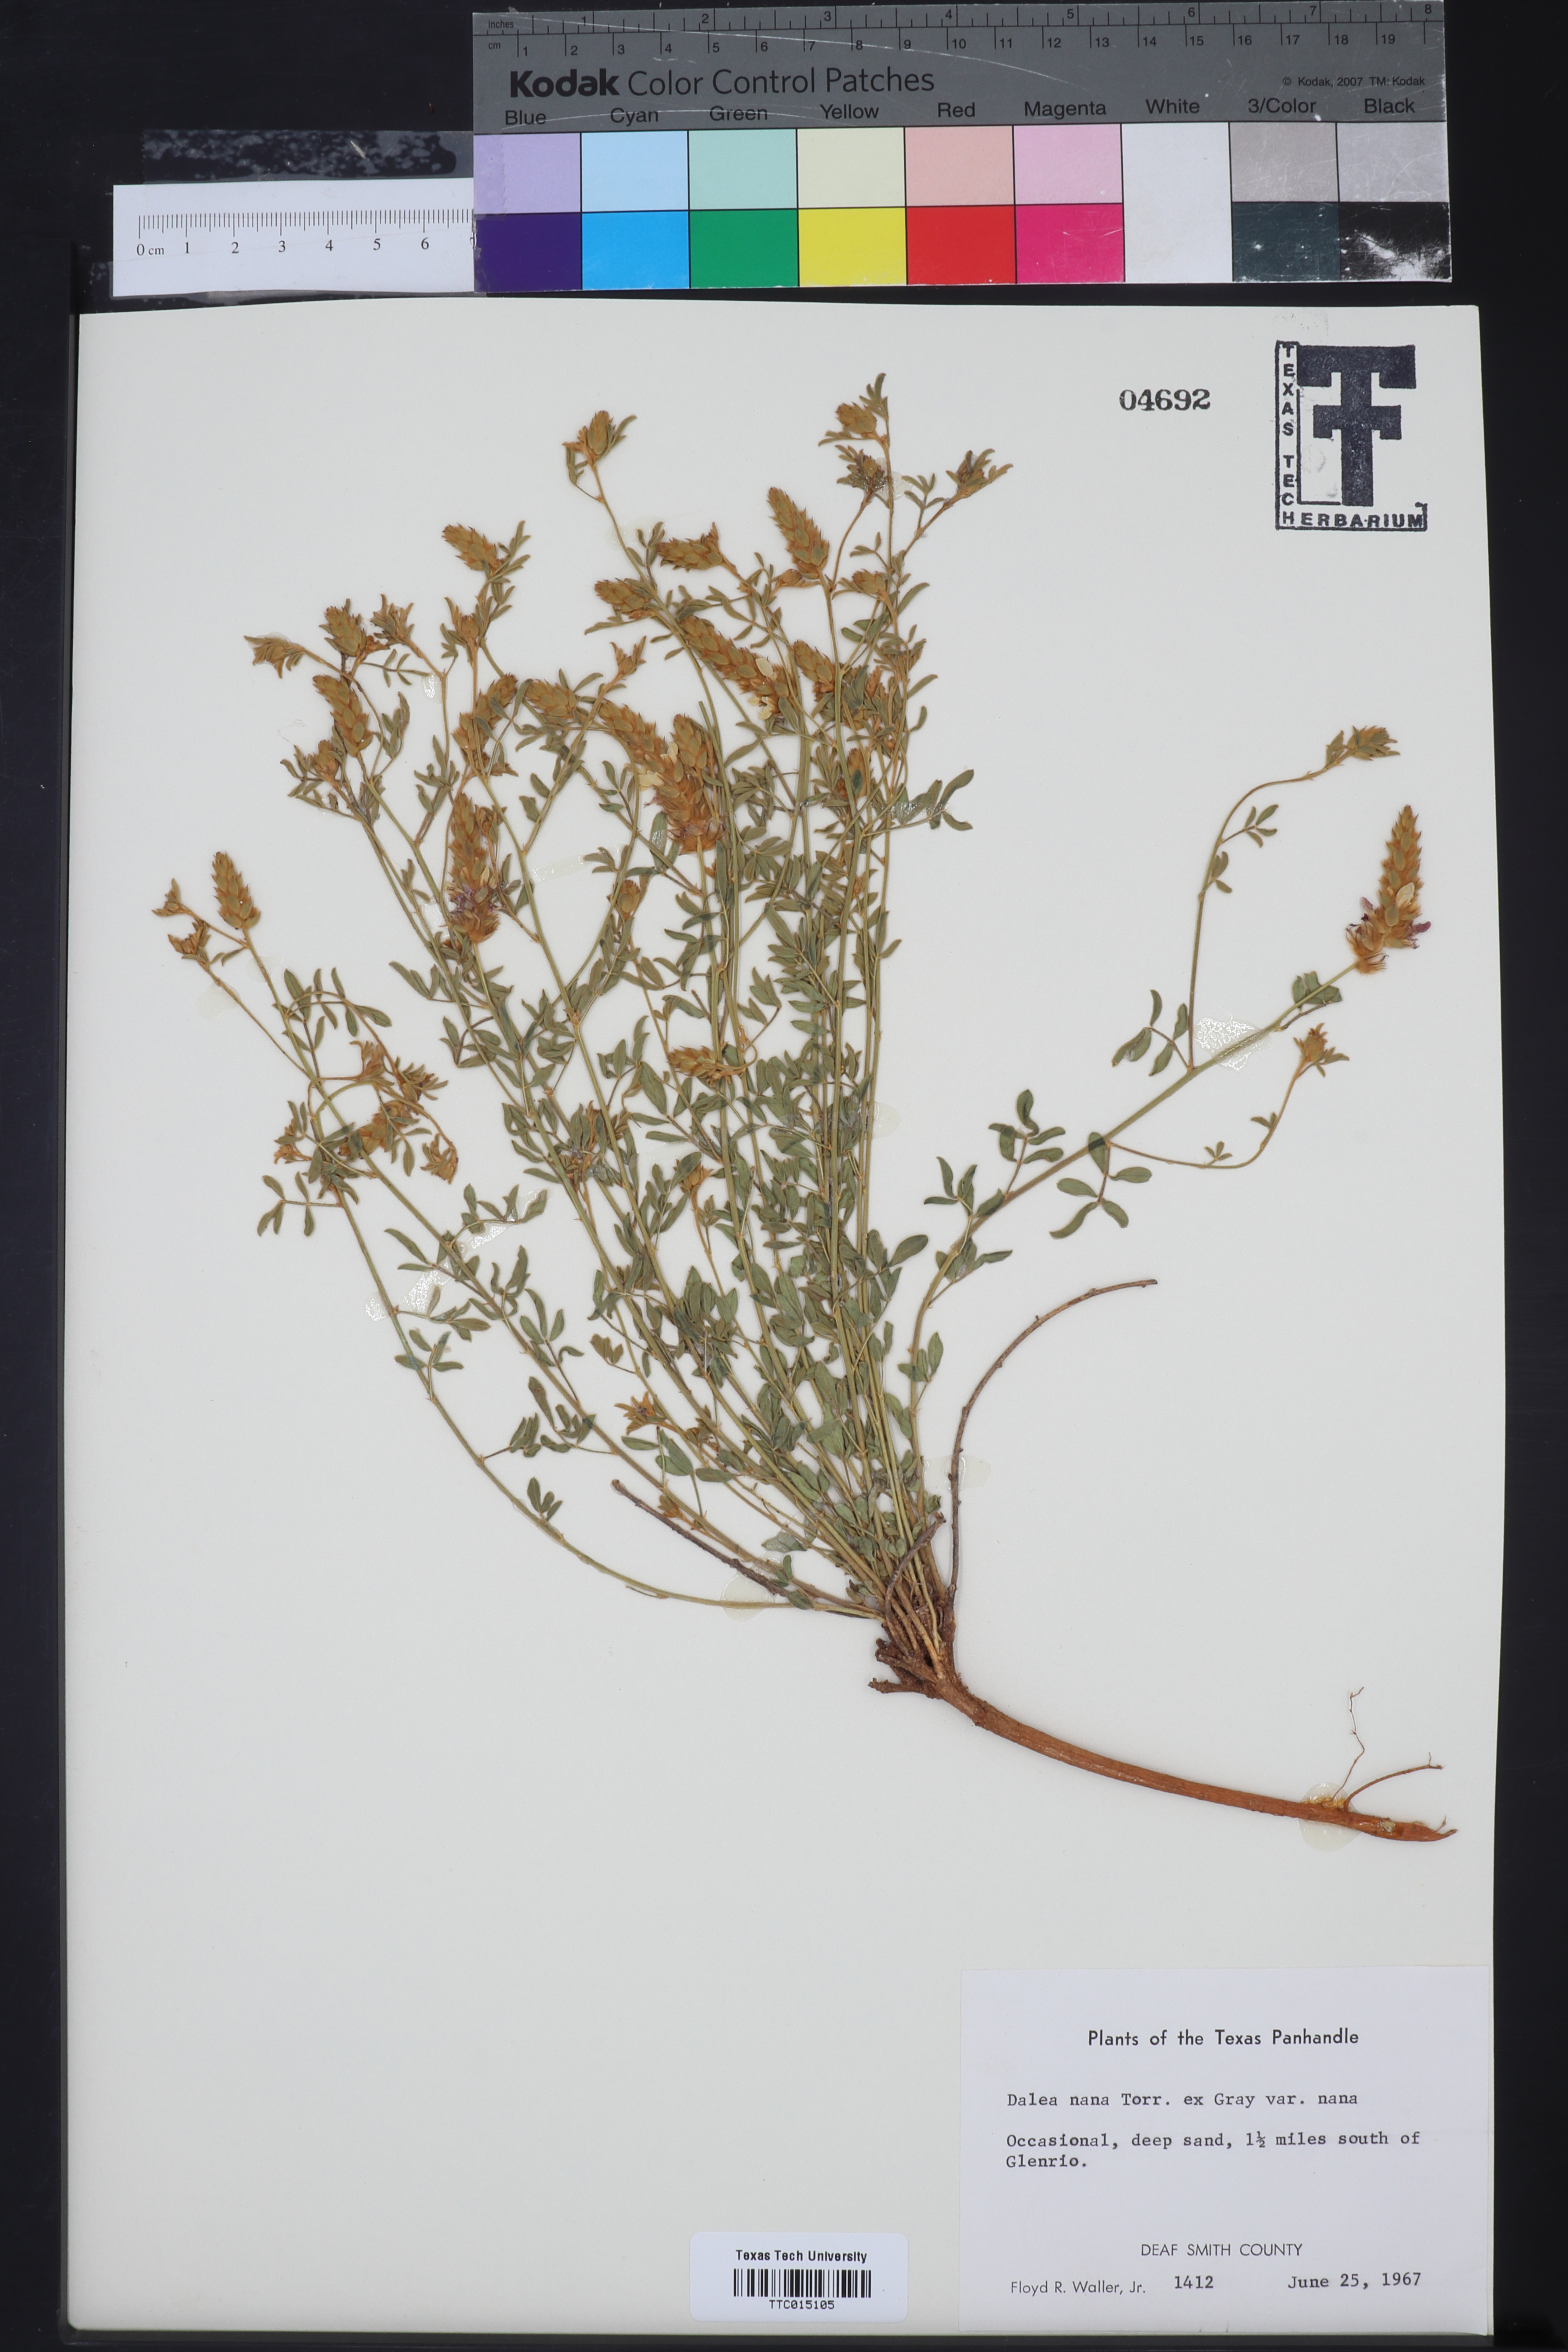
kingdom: Plantae
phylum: Tracheophyta
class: Magnoliopsida
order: Fabales
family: Fabaceae
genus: Dalea
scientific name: Dalea nana
